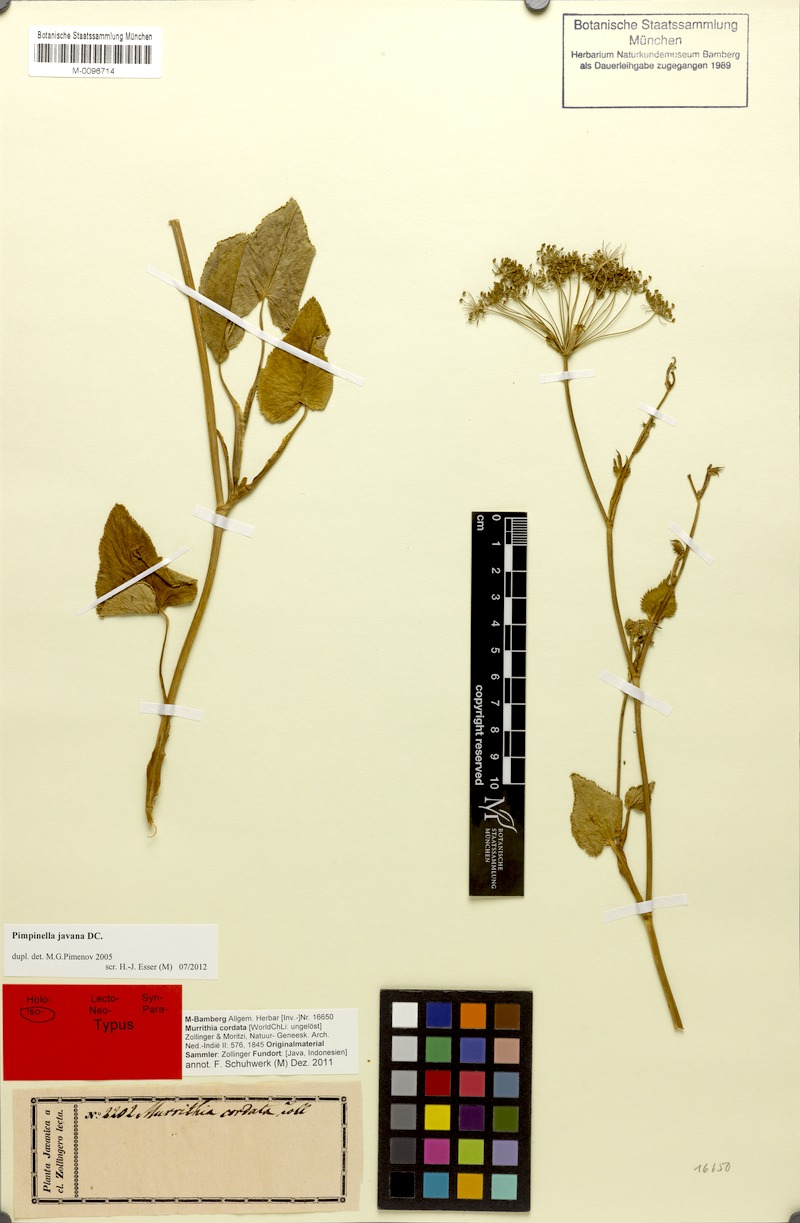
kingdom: Plantae
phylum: Tracheophyta
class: Magnoliopsida
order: Apiales
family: Apiaceae
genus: Pimpinella
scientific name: Pimpinella javana
